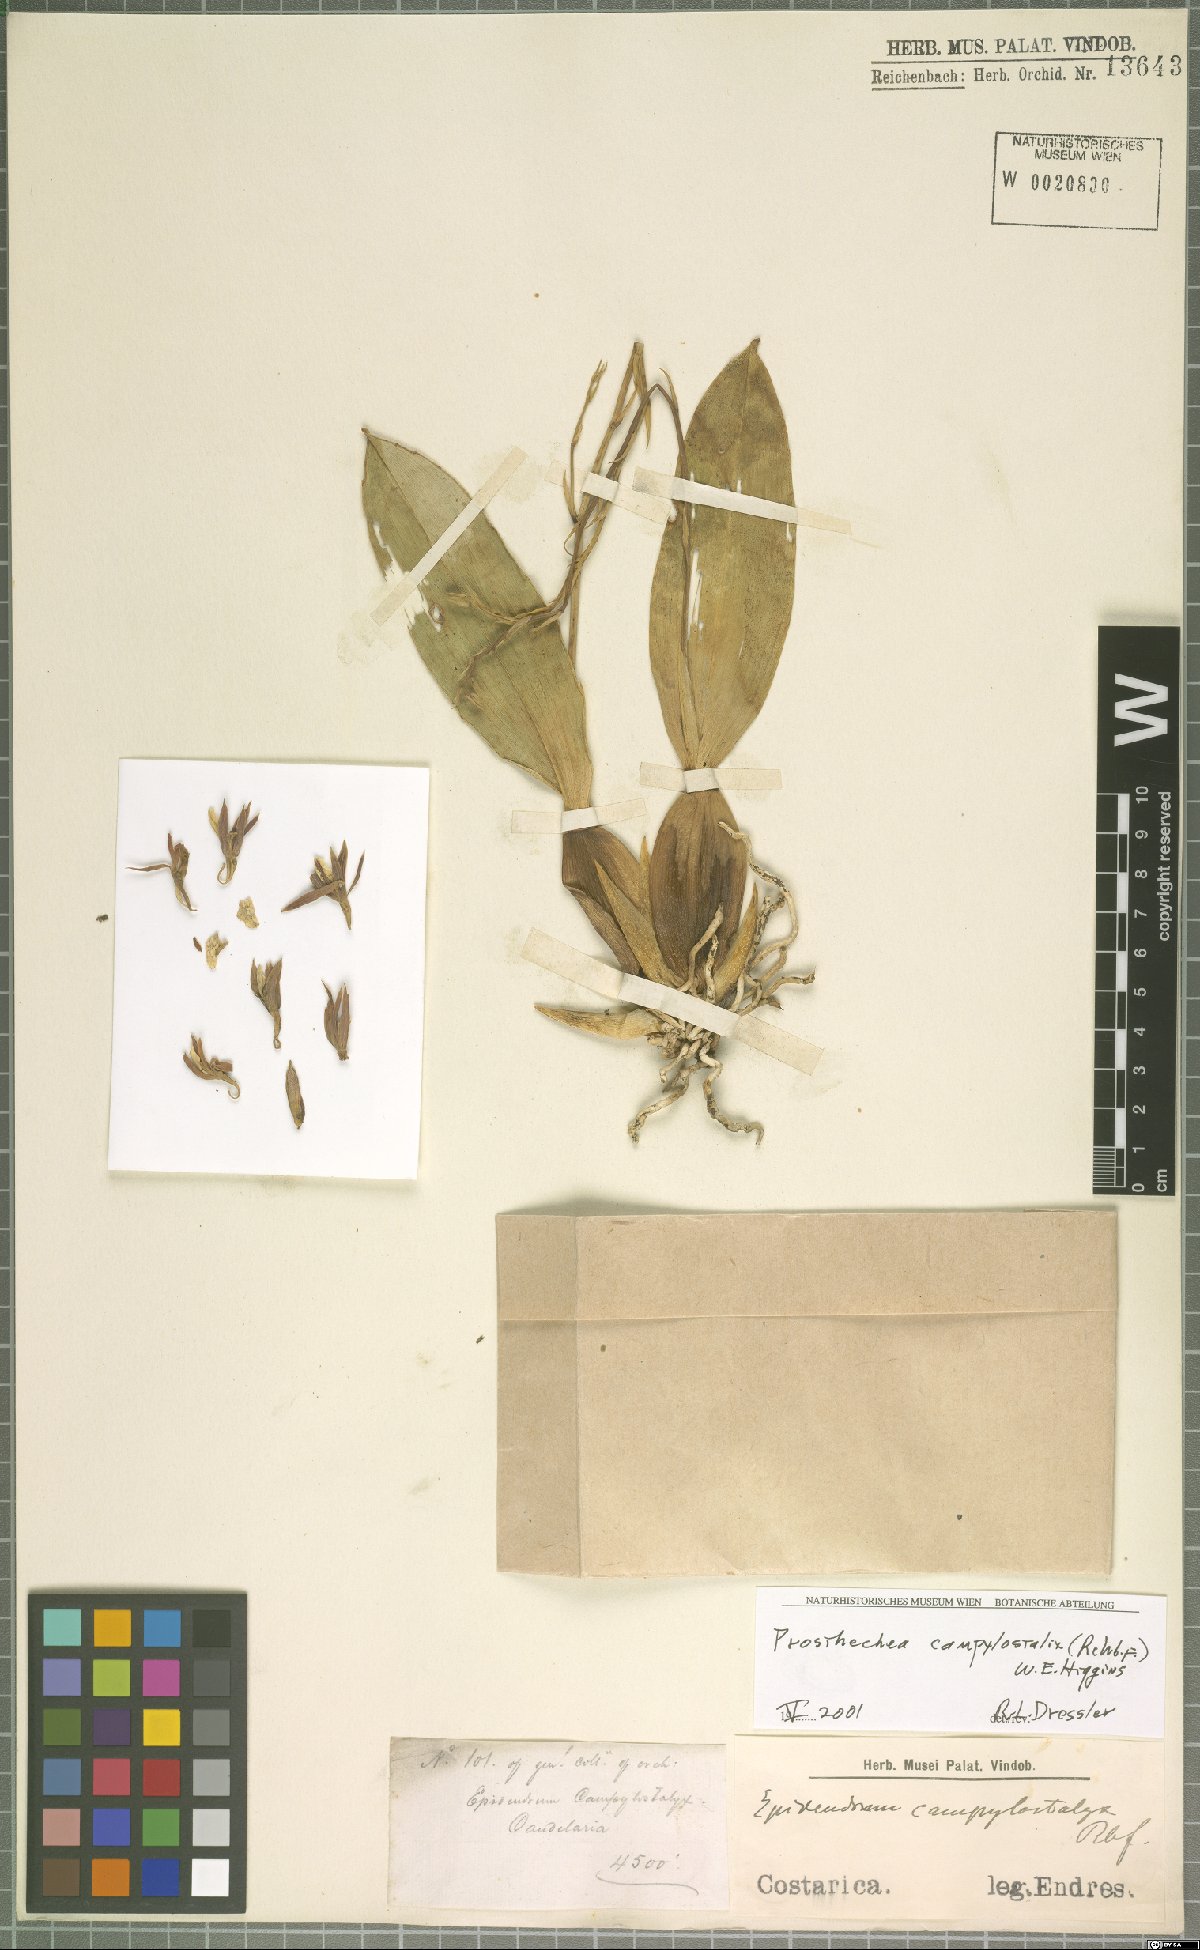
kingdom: Plantae
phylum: Tracheophyta
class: Liliopsida
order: Asparagales
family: Orchidaceae
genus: Prosthechea
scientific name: Prosthechea campylostalix
